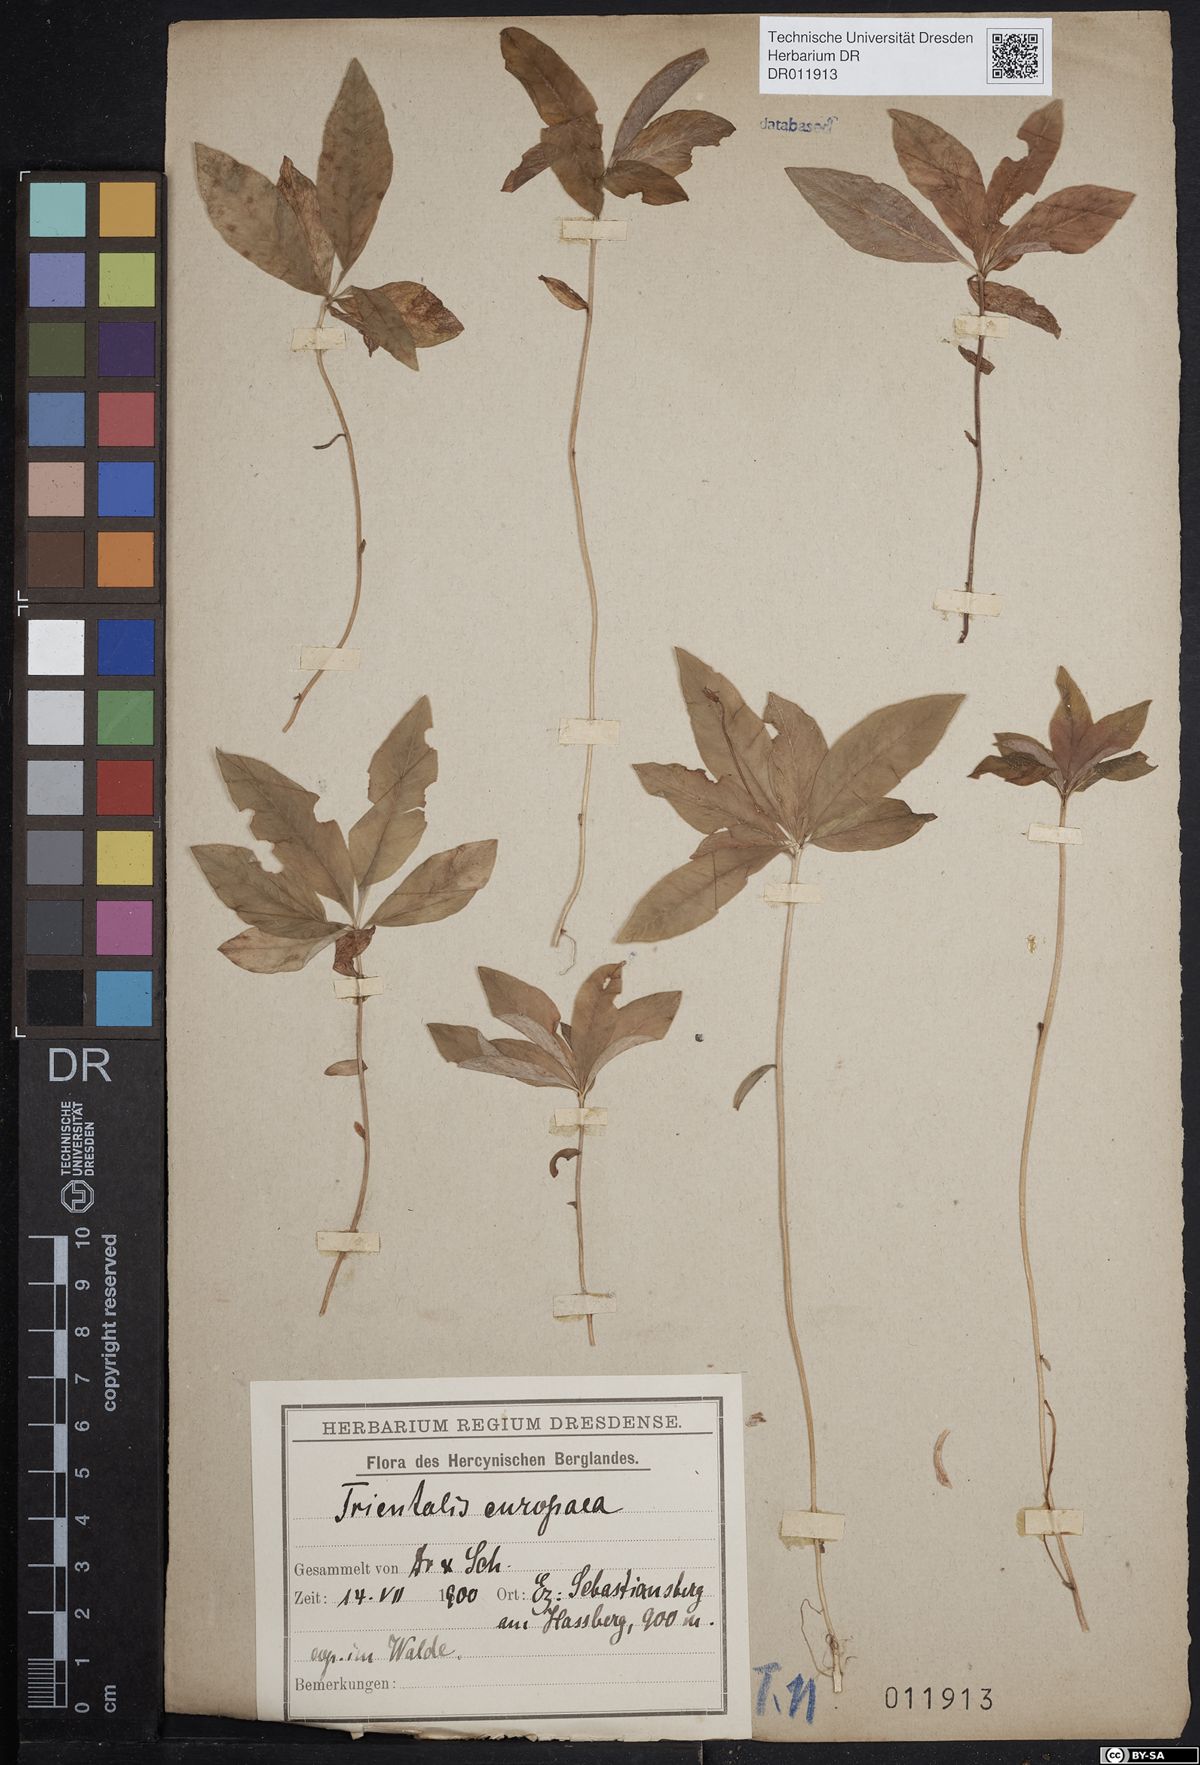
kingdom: Plantae
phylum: Tracheophyta
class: Magnoliopsida
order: Ericales
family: Primulaceae
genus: Lysimachia
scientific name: Lysimachia europaea
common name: Arctic starflower
